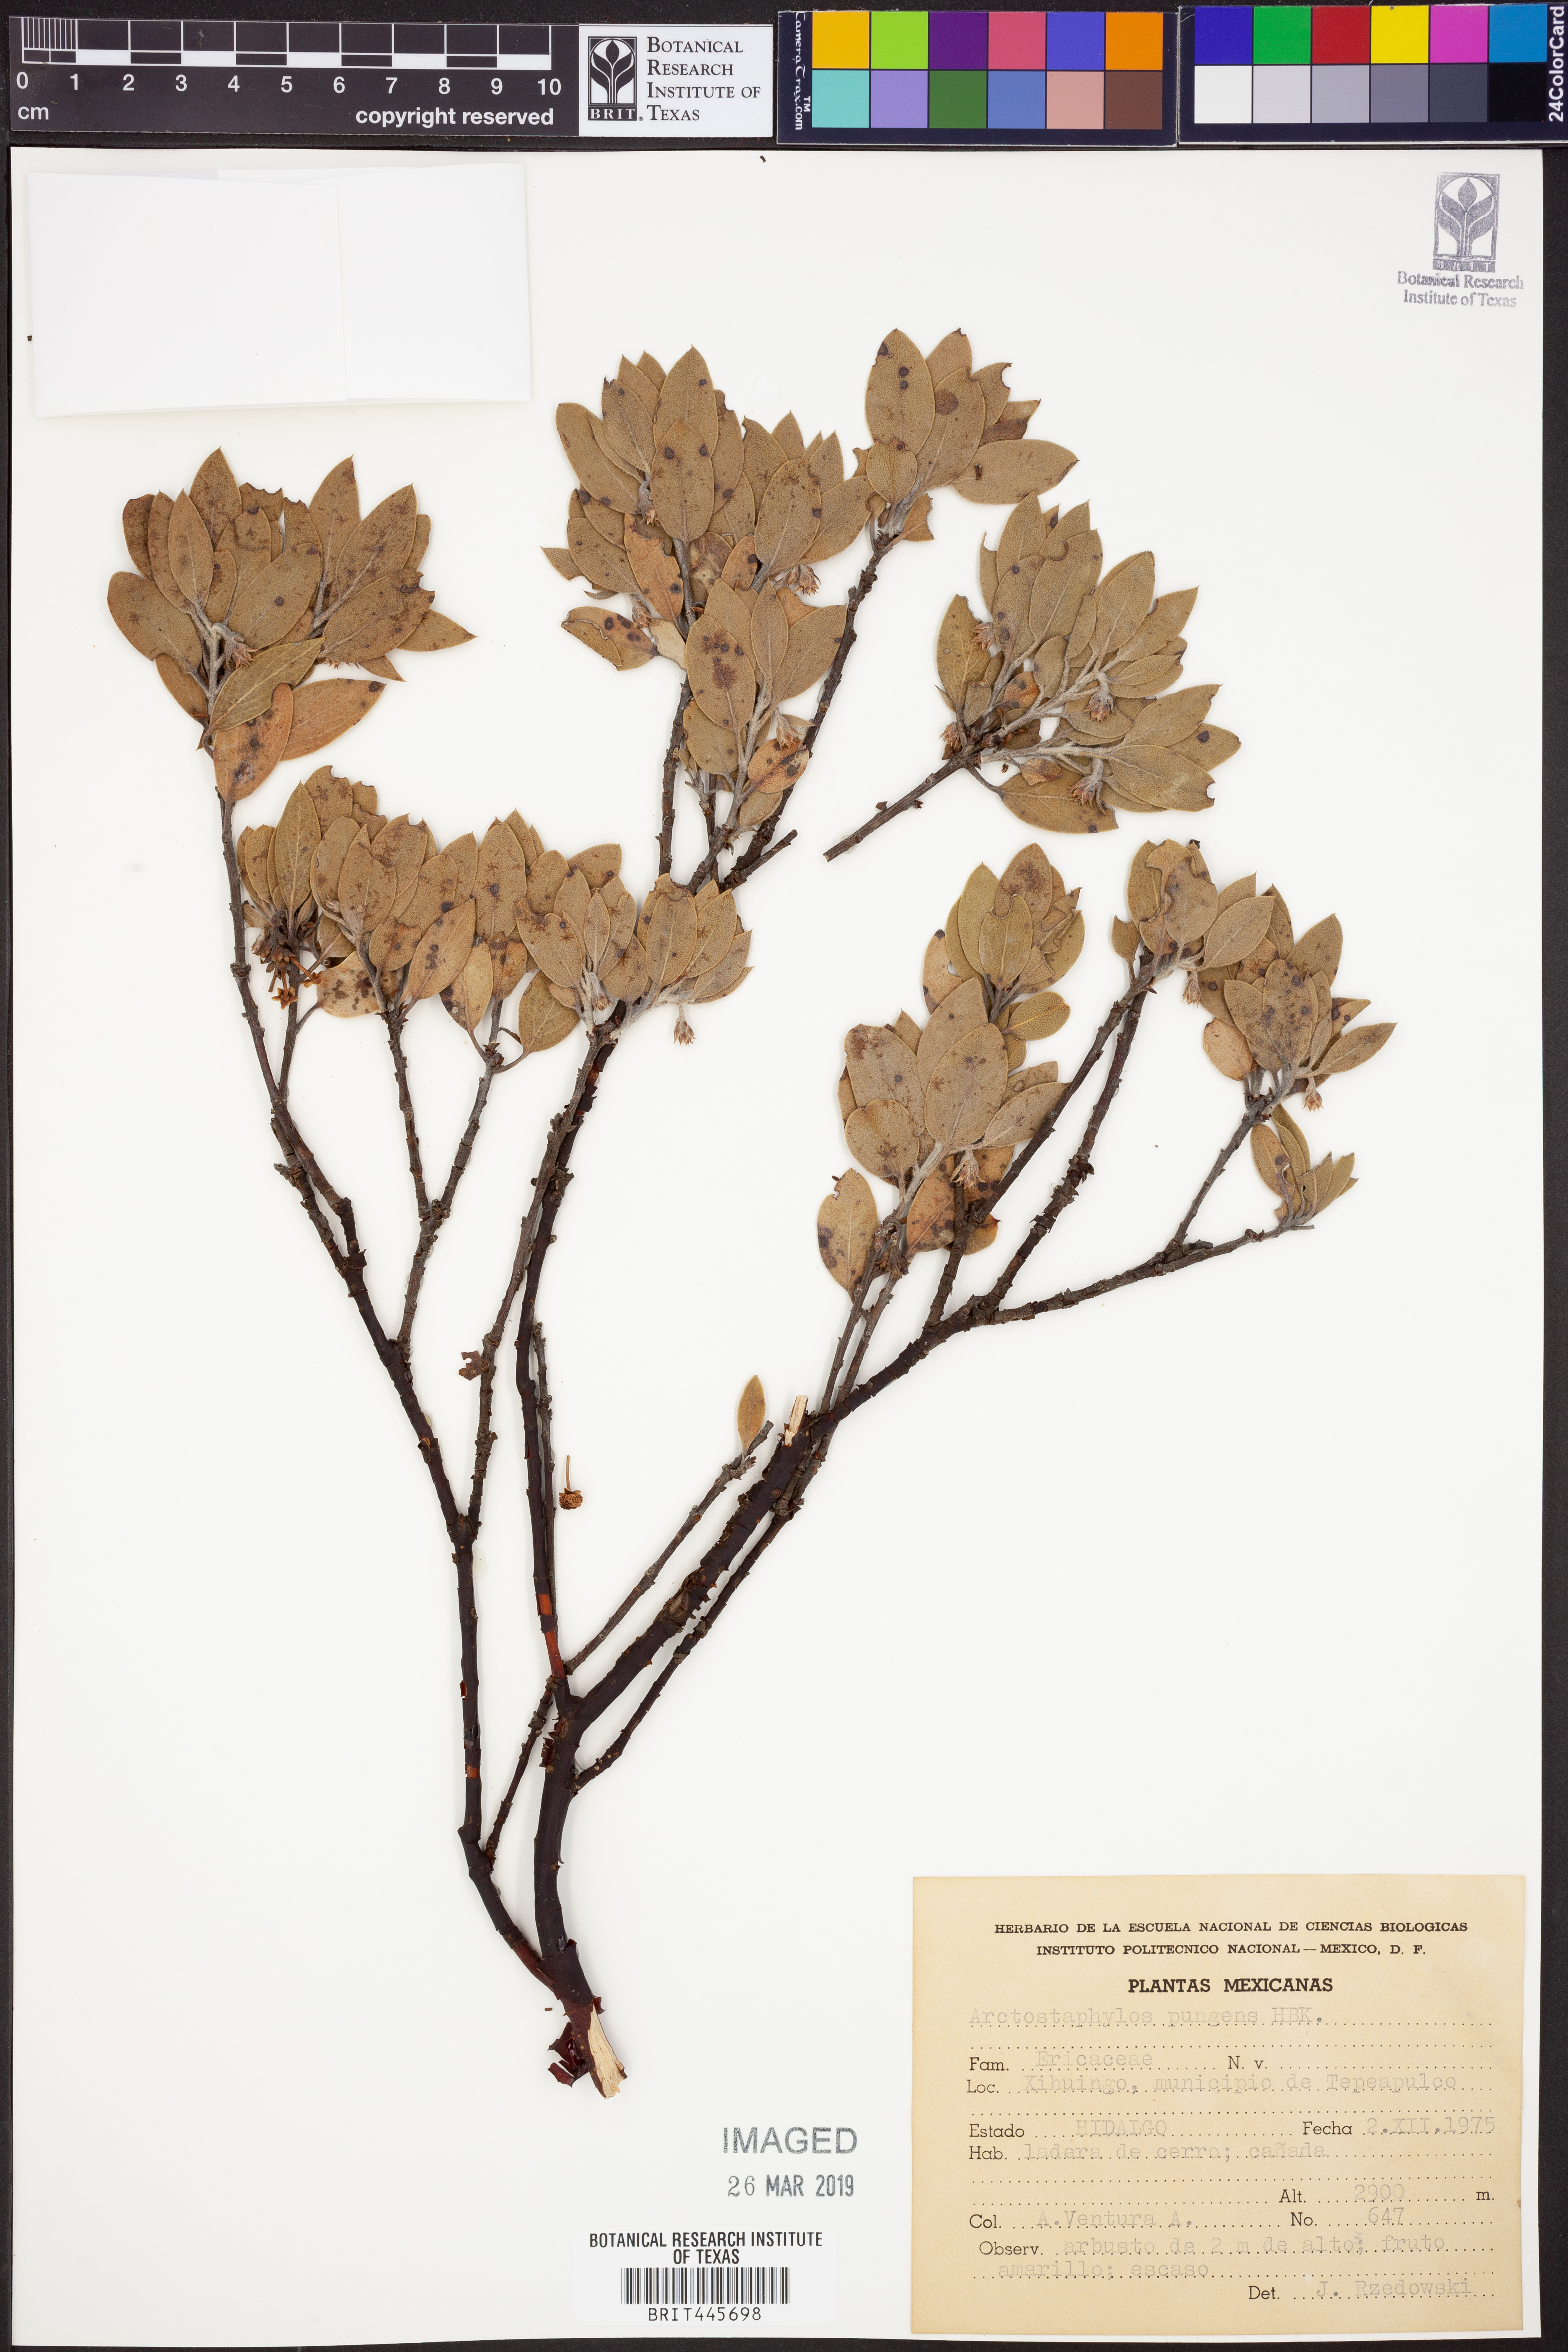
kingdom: Plantae
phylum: Tracheophyta
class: Magnoliopsida
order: Ericales
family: Ericaceae
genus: Arctostaphylos
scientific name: Arctostaphylos pungens
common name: Mexican manzanita
